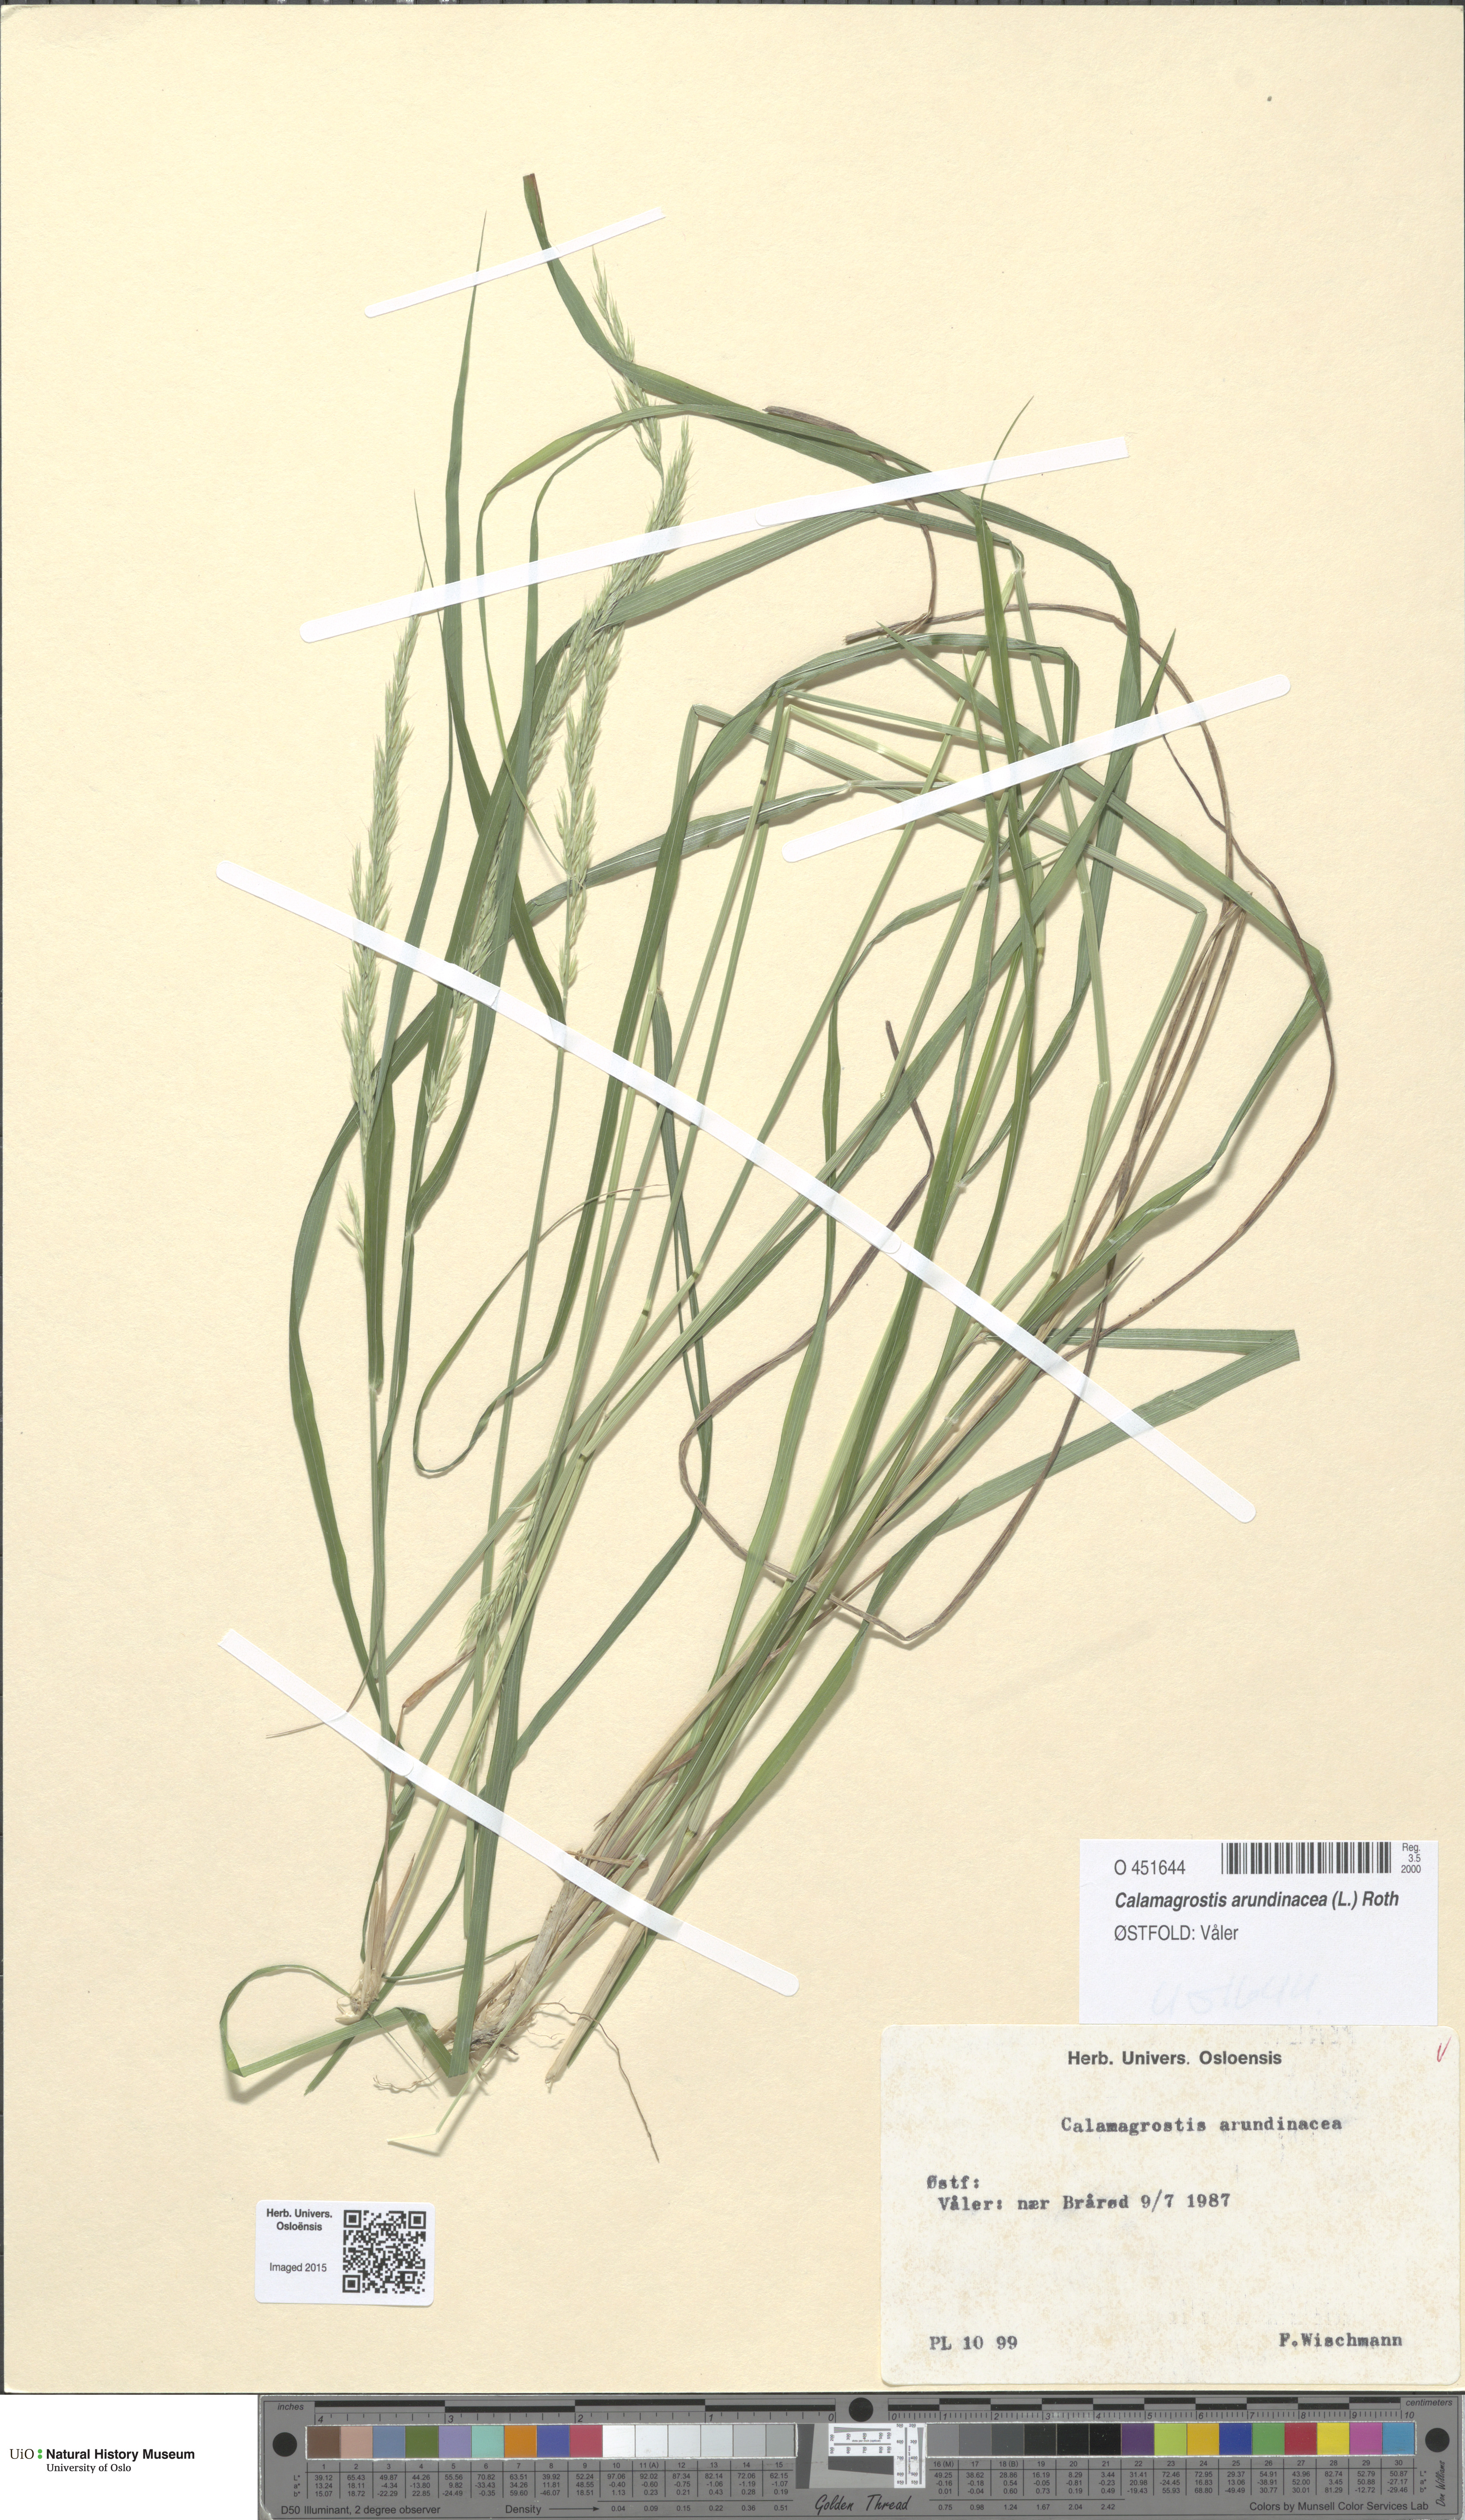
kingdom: Plantae
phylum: Tracheophyta
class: Liliopsida
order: Poales
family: Poaceae
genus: Calamagrostis
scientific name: Calamagrostis arundinacea
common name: Metskastik
